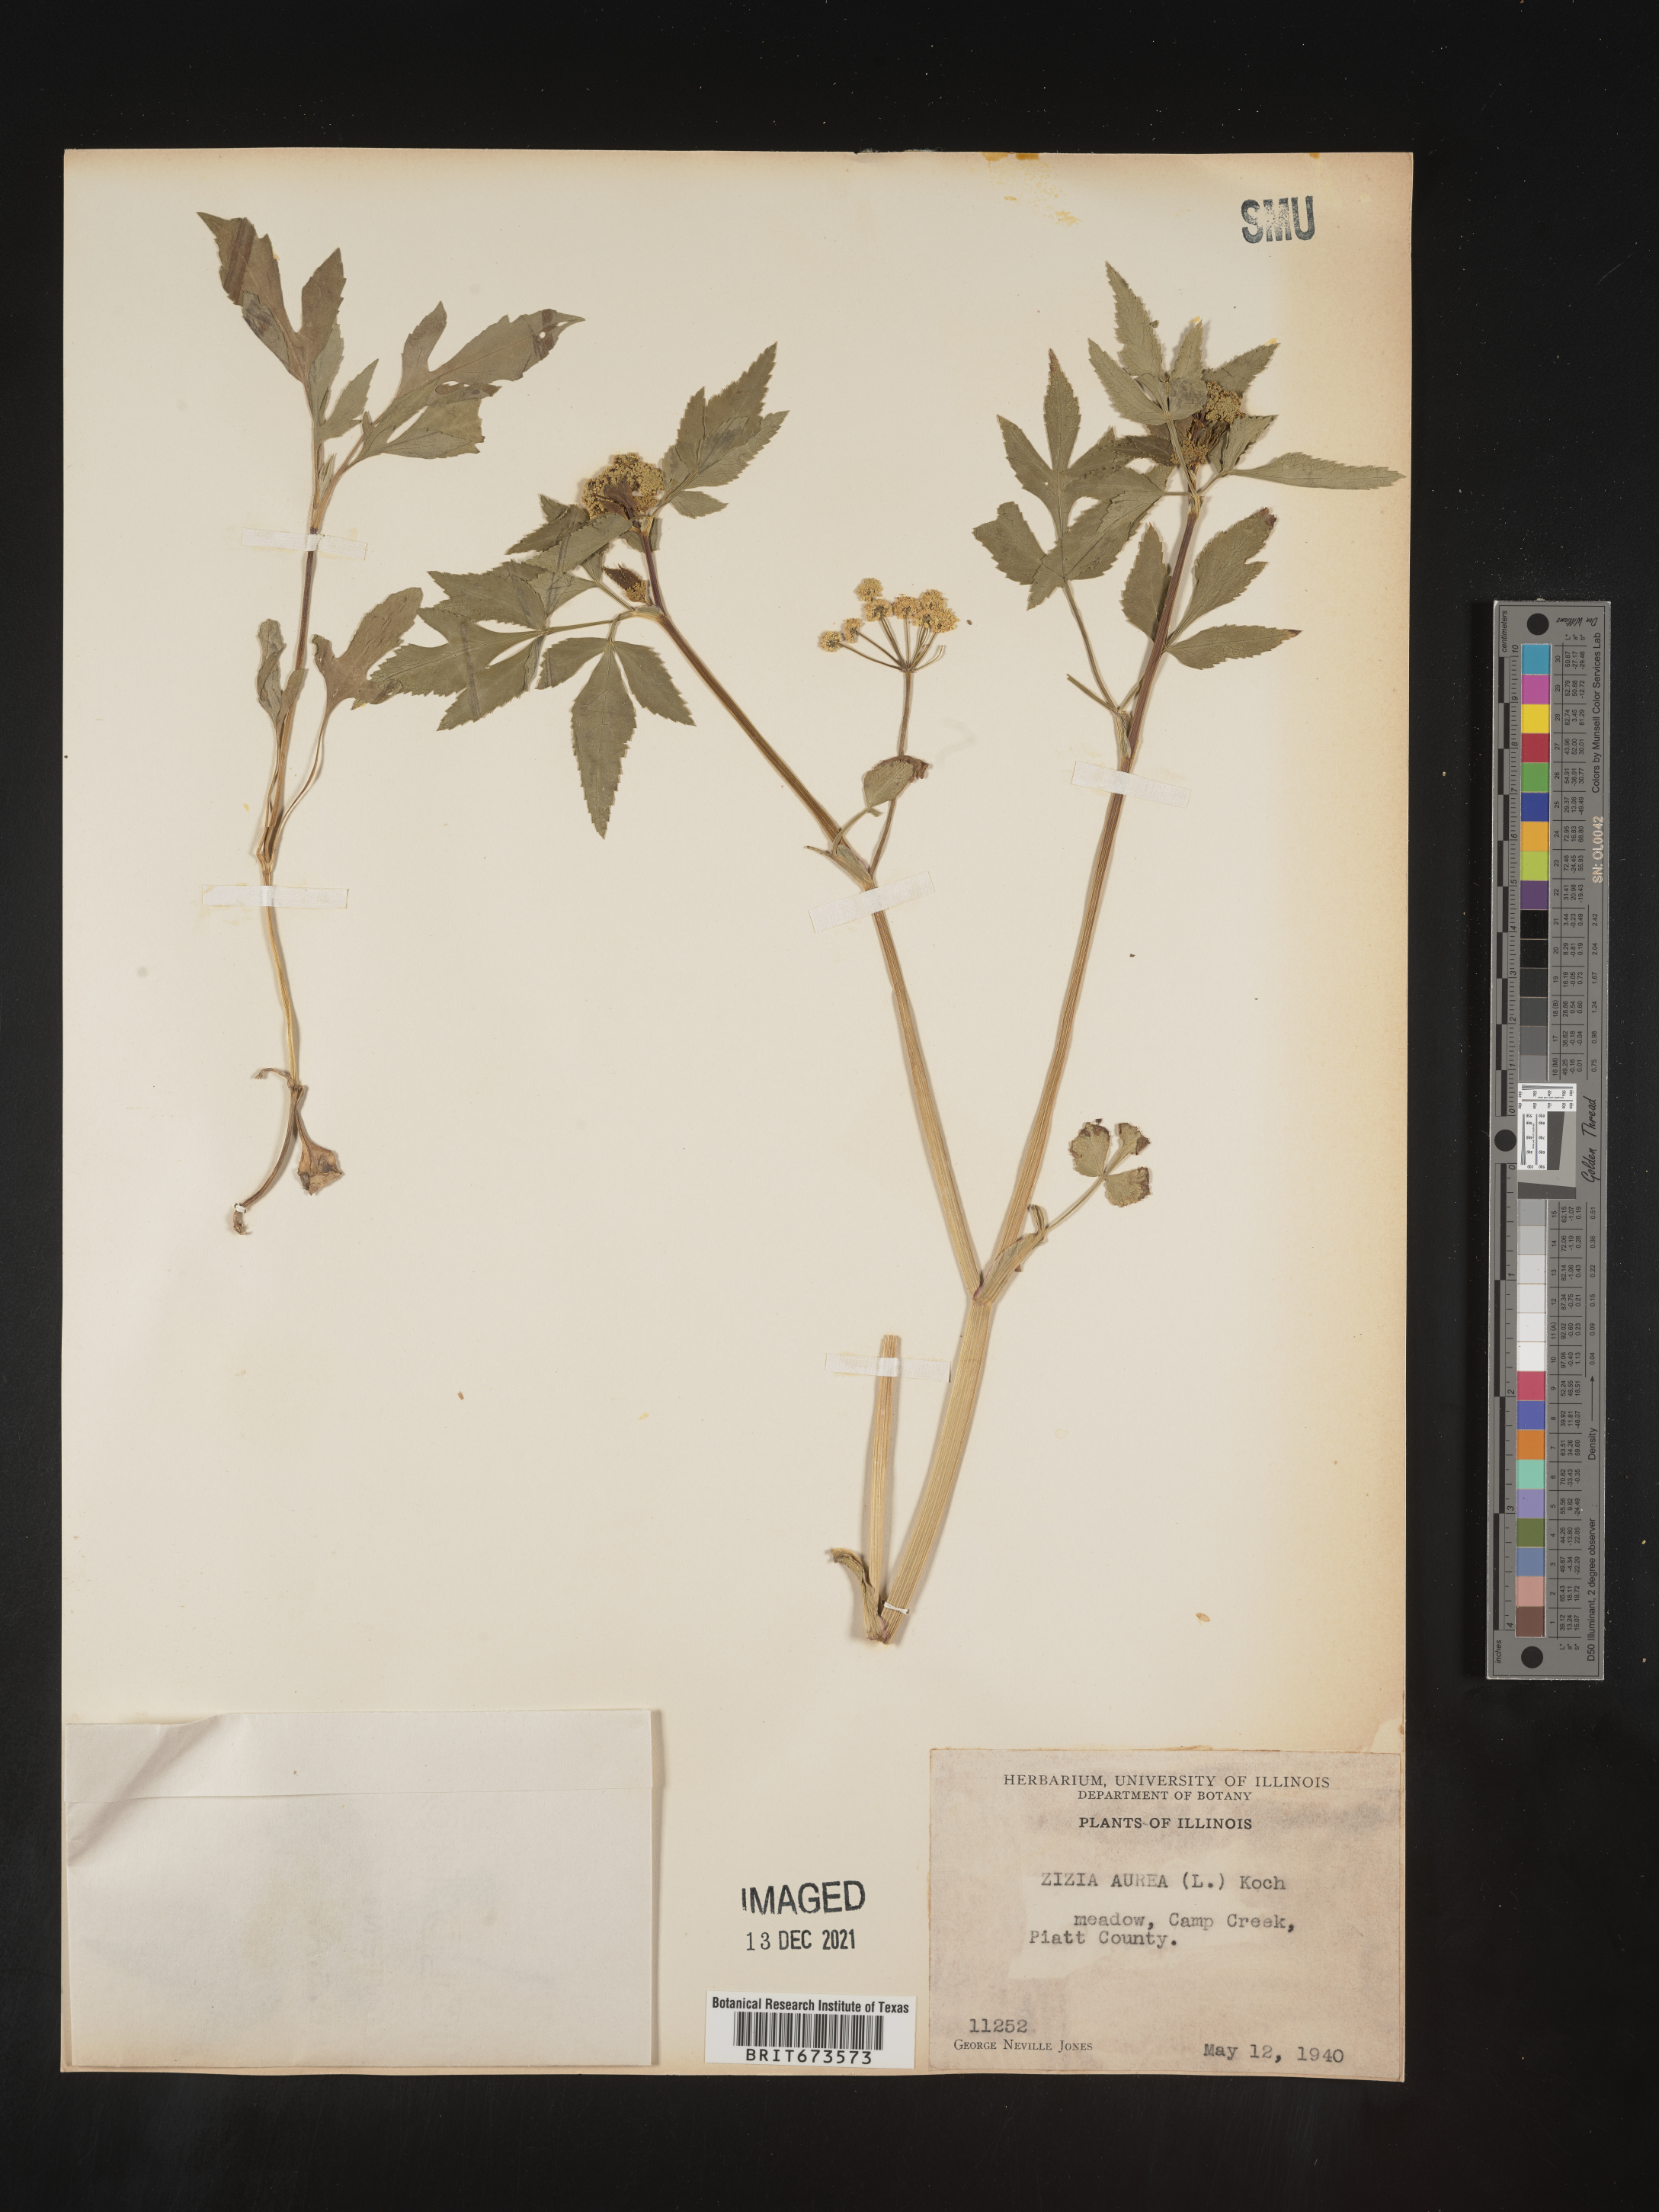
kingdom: Plantae
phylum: Tracheophyta
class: Magnoliopsida
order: Apiales
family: Apiaceae
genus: Zizia
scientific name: Zizia aurea
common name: Golden alexanders
